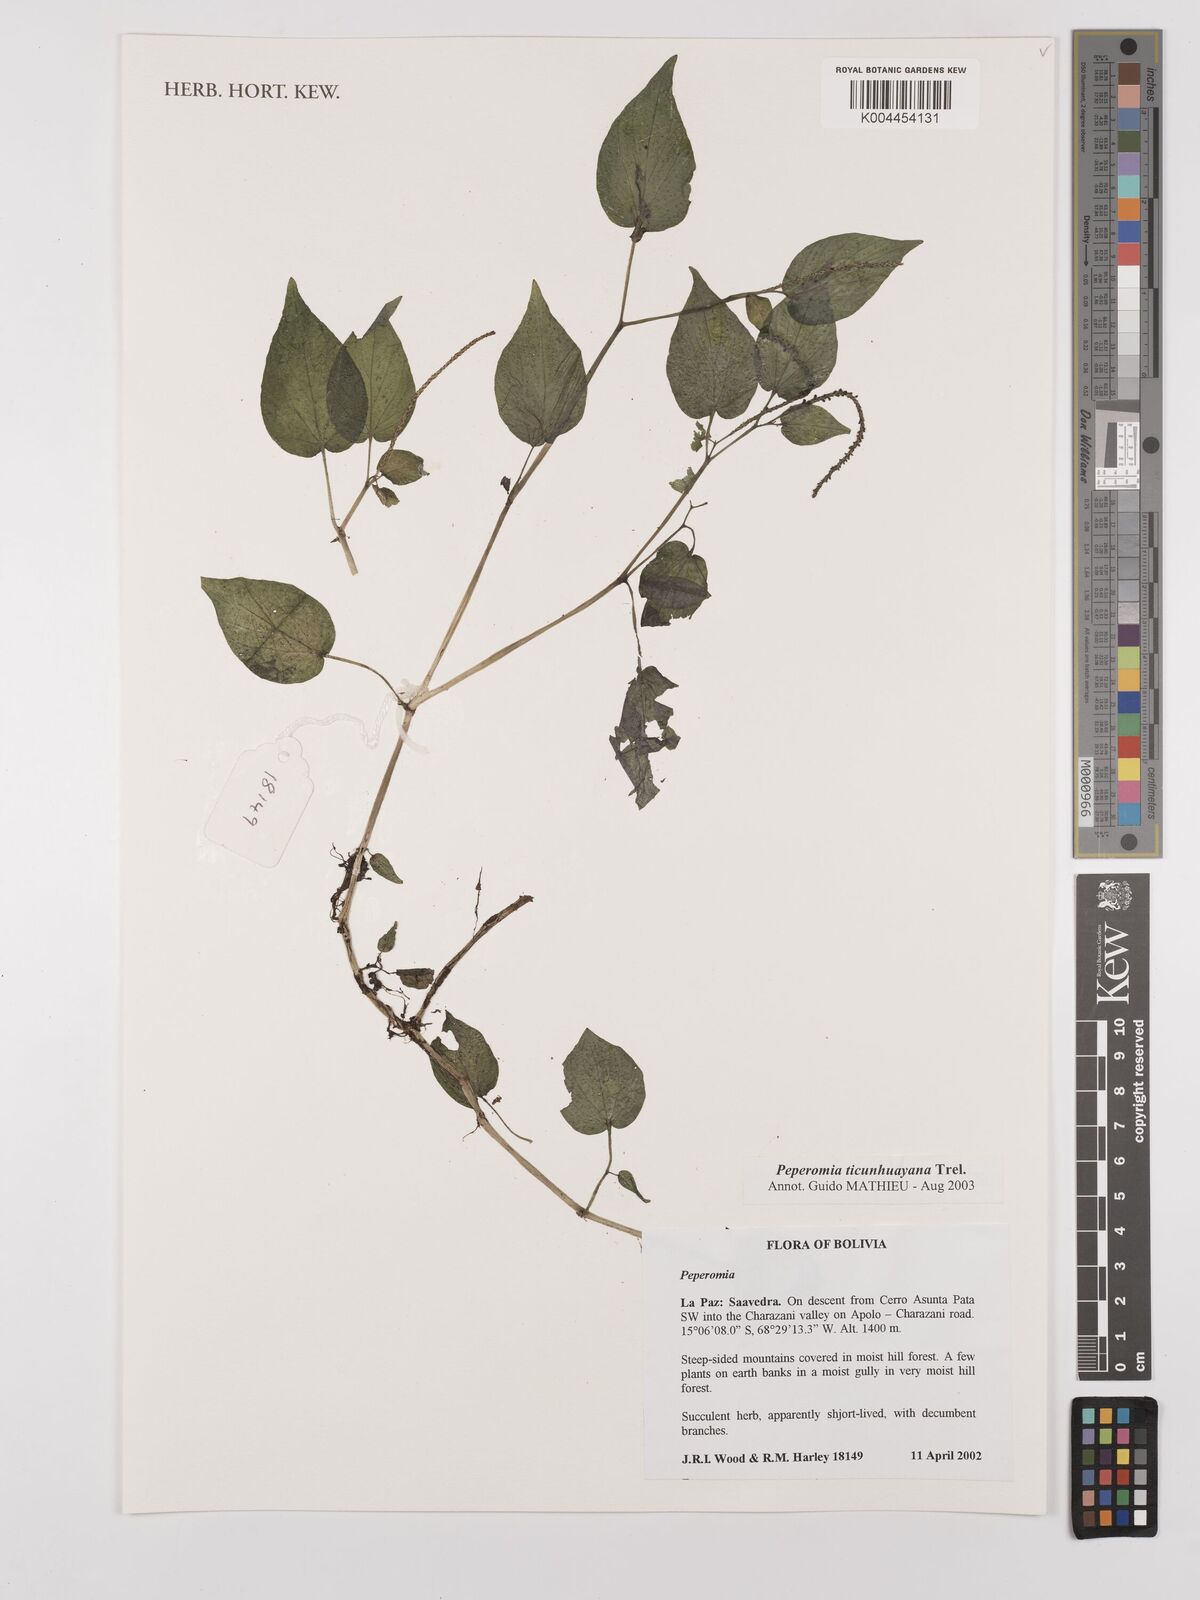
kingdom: Plantae
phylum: Tracheophyta
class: Magnoliopsida
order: Piperales
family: Piperaceae
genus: Peperomia
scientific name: Peperomia ticunhuayana
